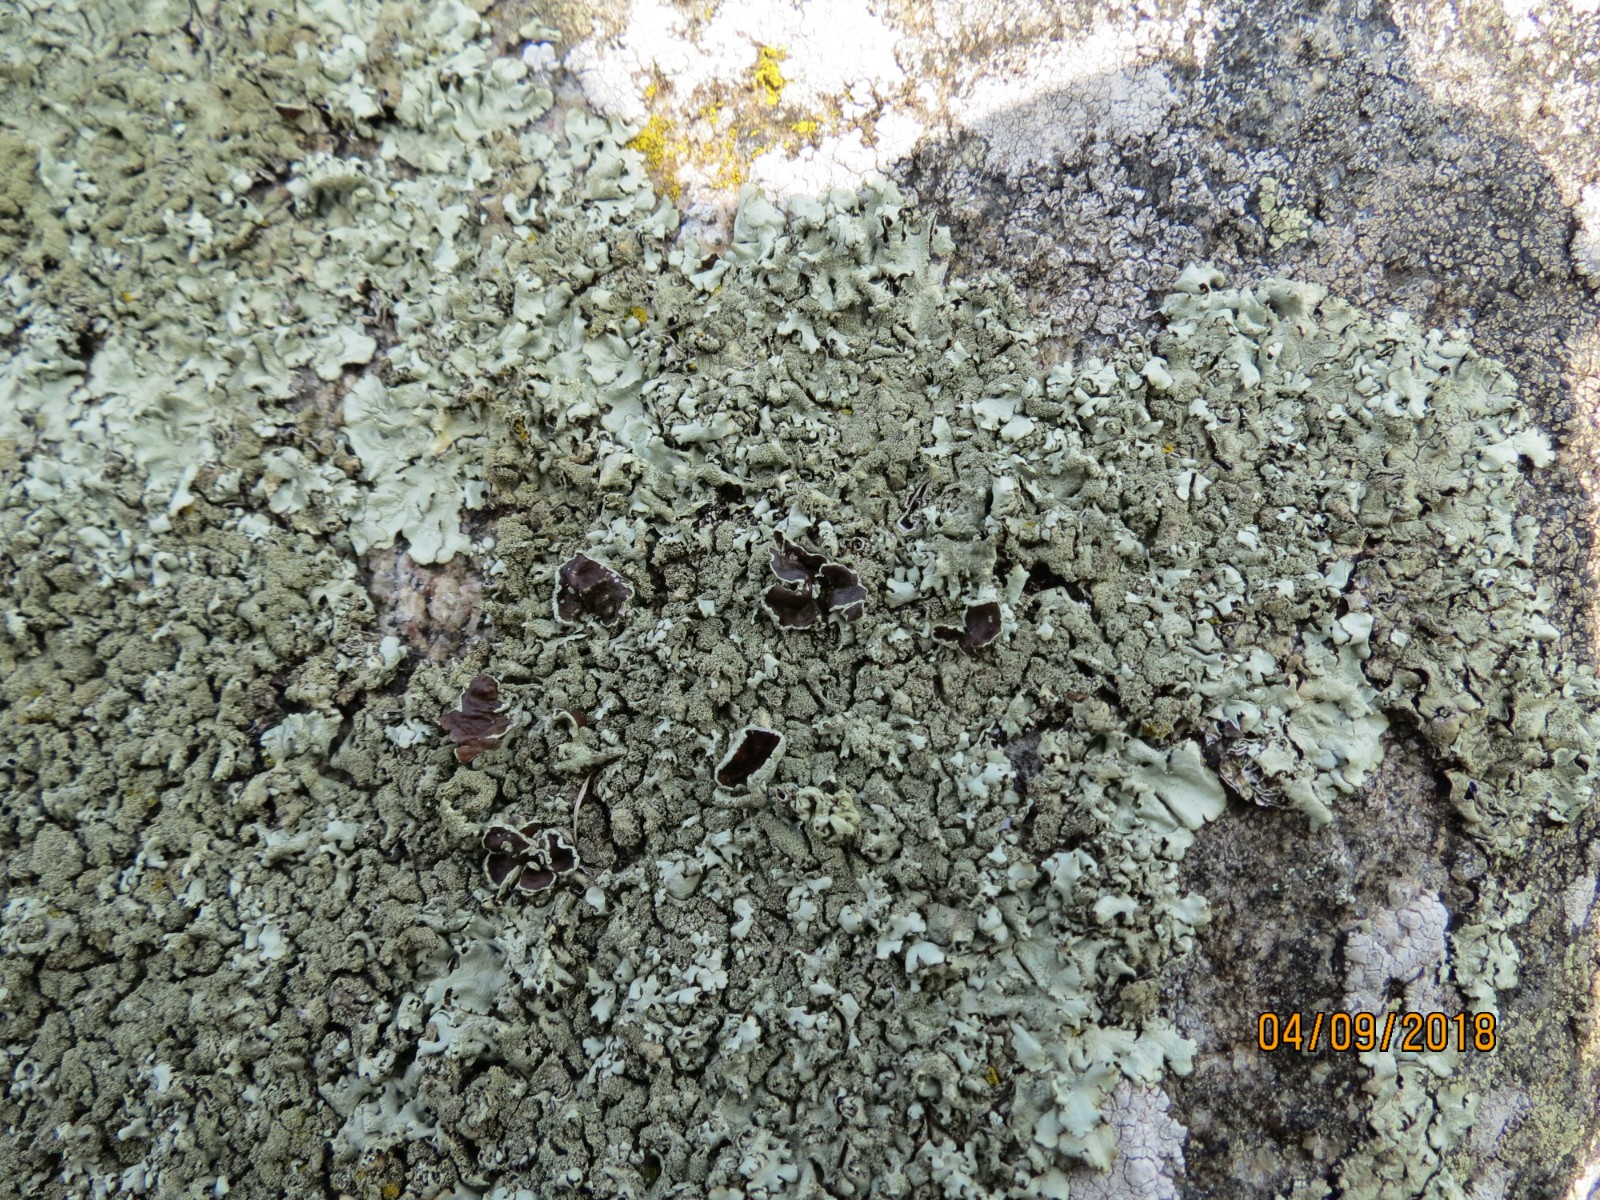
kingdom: Fungi
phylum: Ascomycota
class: Lecanoromycetes
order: Lecanorales
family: Parmeliaceae
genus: Xanthoparmelia
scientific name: Xanthoparmelia conspersa
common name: messing-skållav
